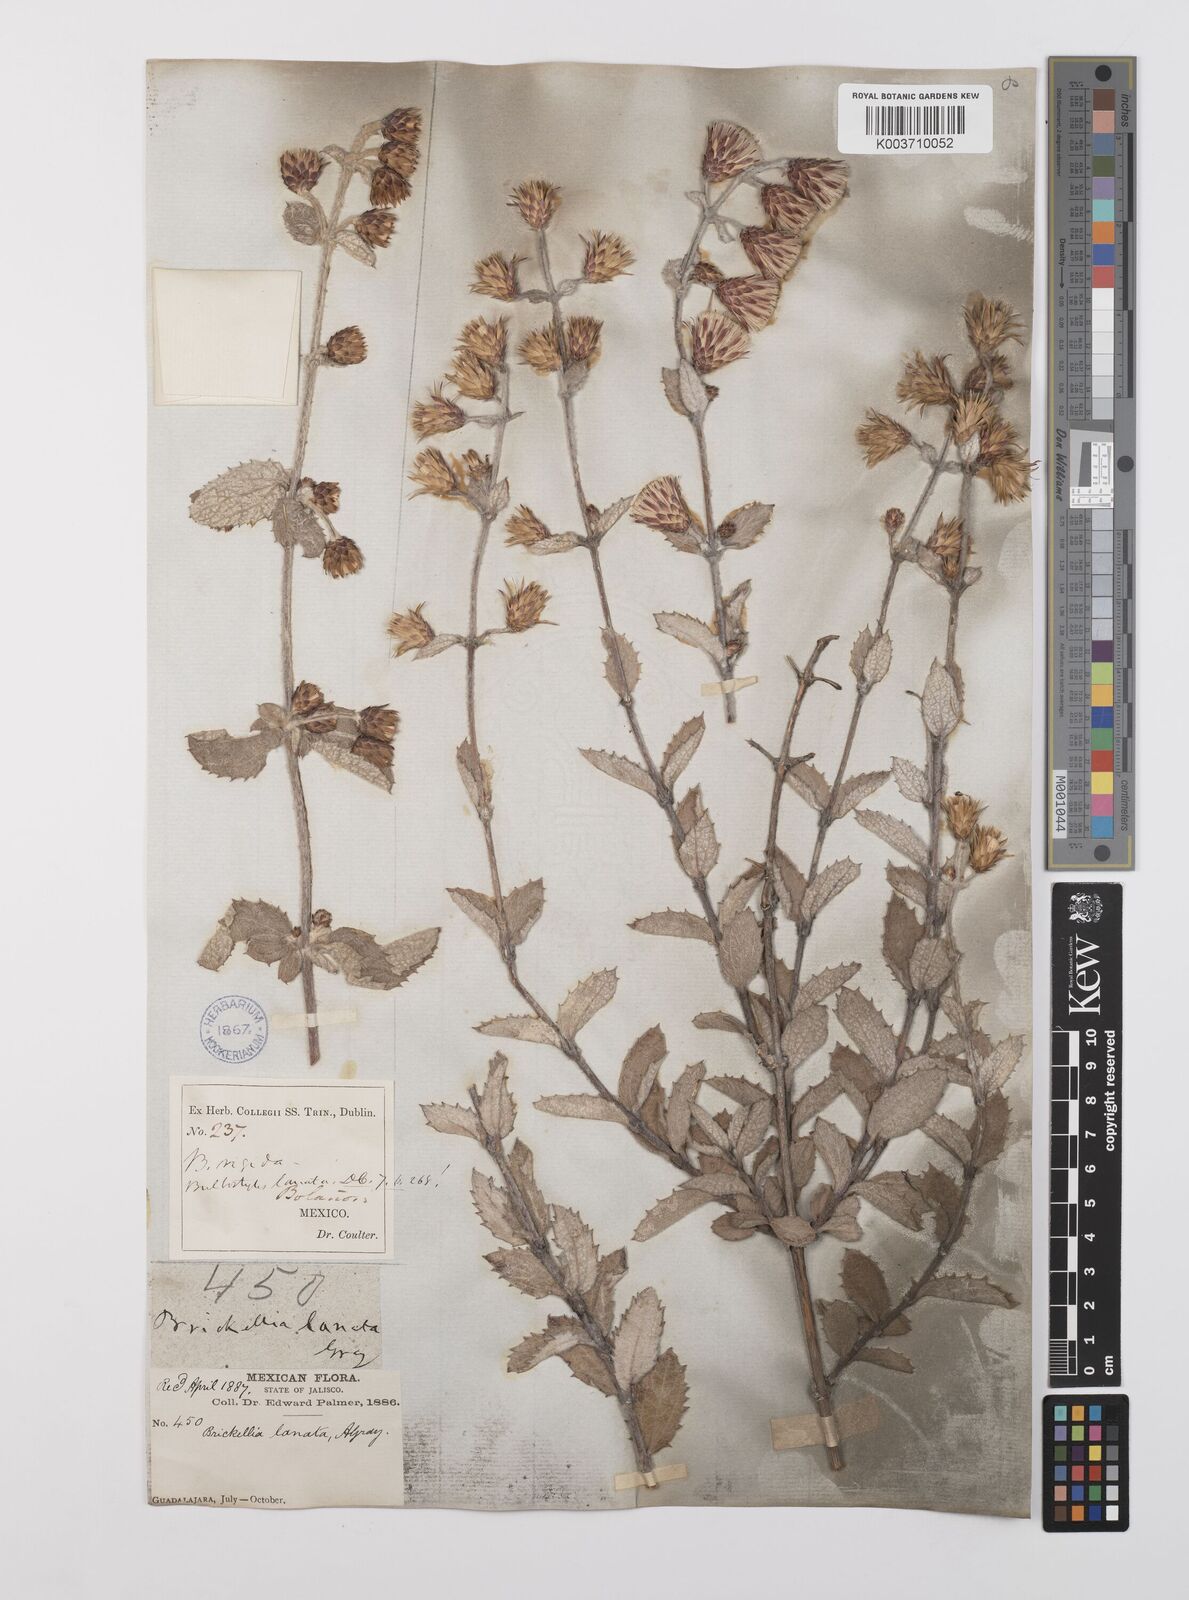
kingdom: Plantae
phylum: Tracheophyta
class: Magnoliopsida
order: Asterales
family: Asteraceae
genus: Brickellia
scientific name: Brickellia lanata
